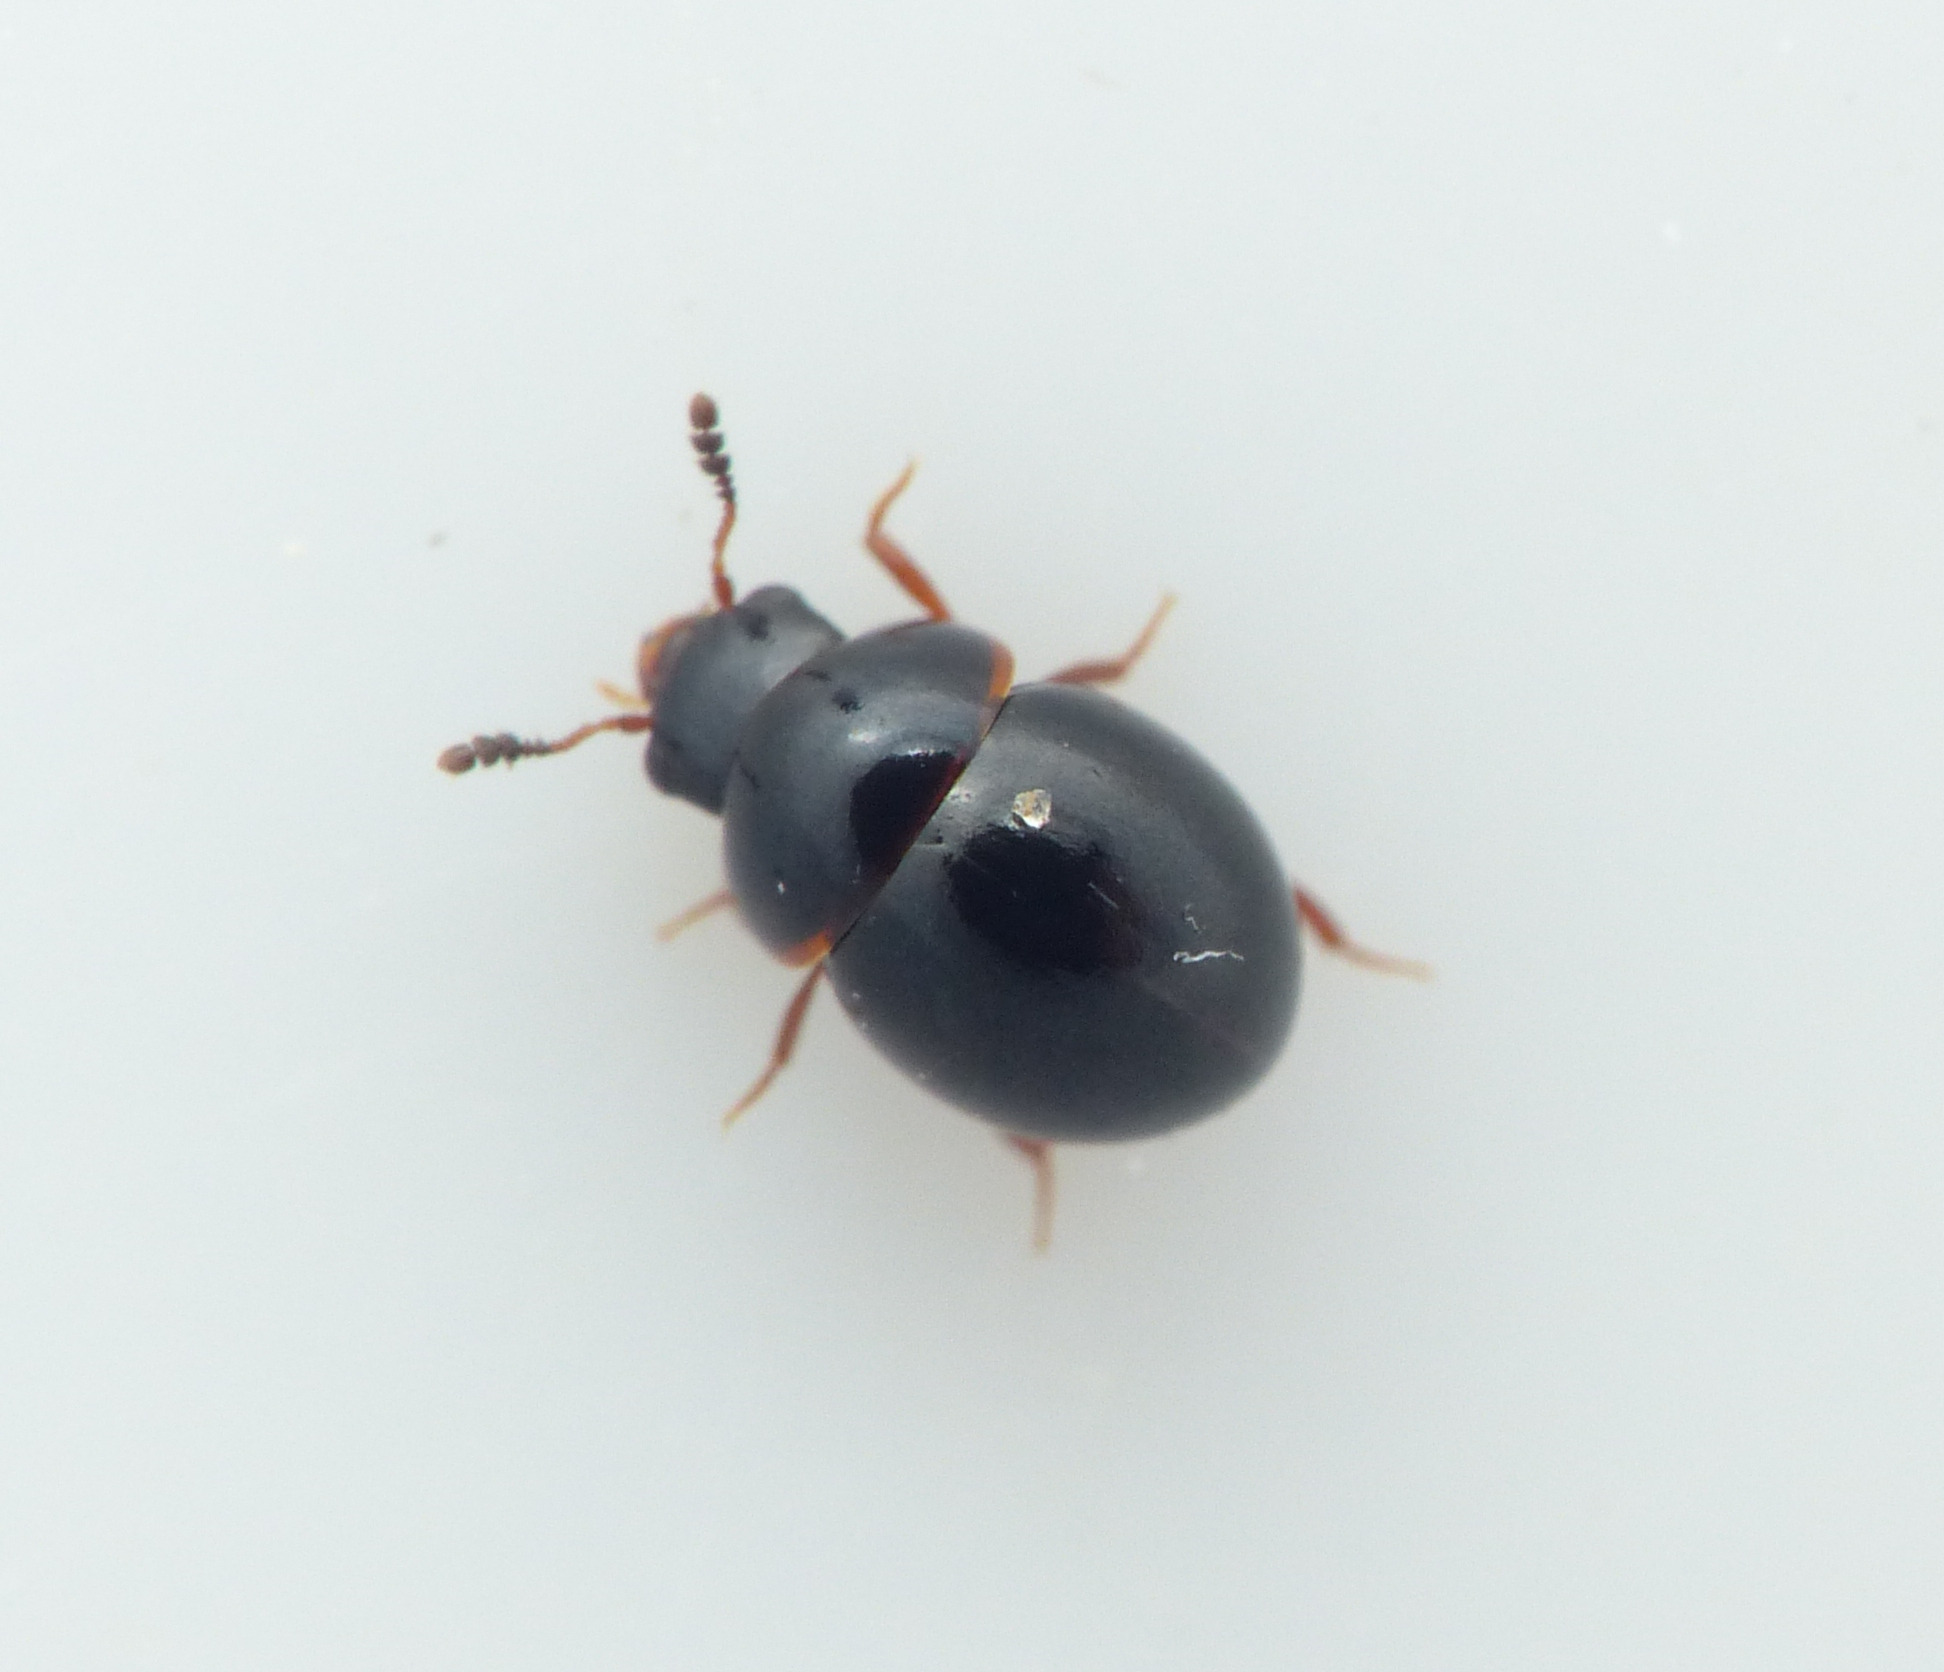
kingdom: Animalia
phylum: Arthropoda
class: Insecta
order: Coleoptera
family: Leiodidae
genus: Agathidium
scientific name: Agathidium marginatum
